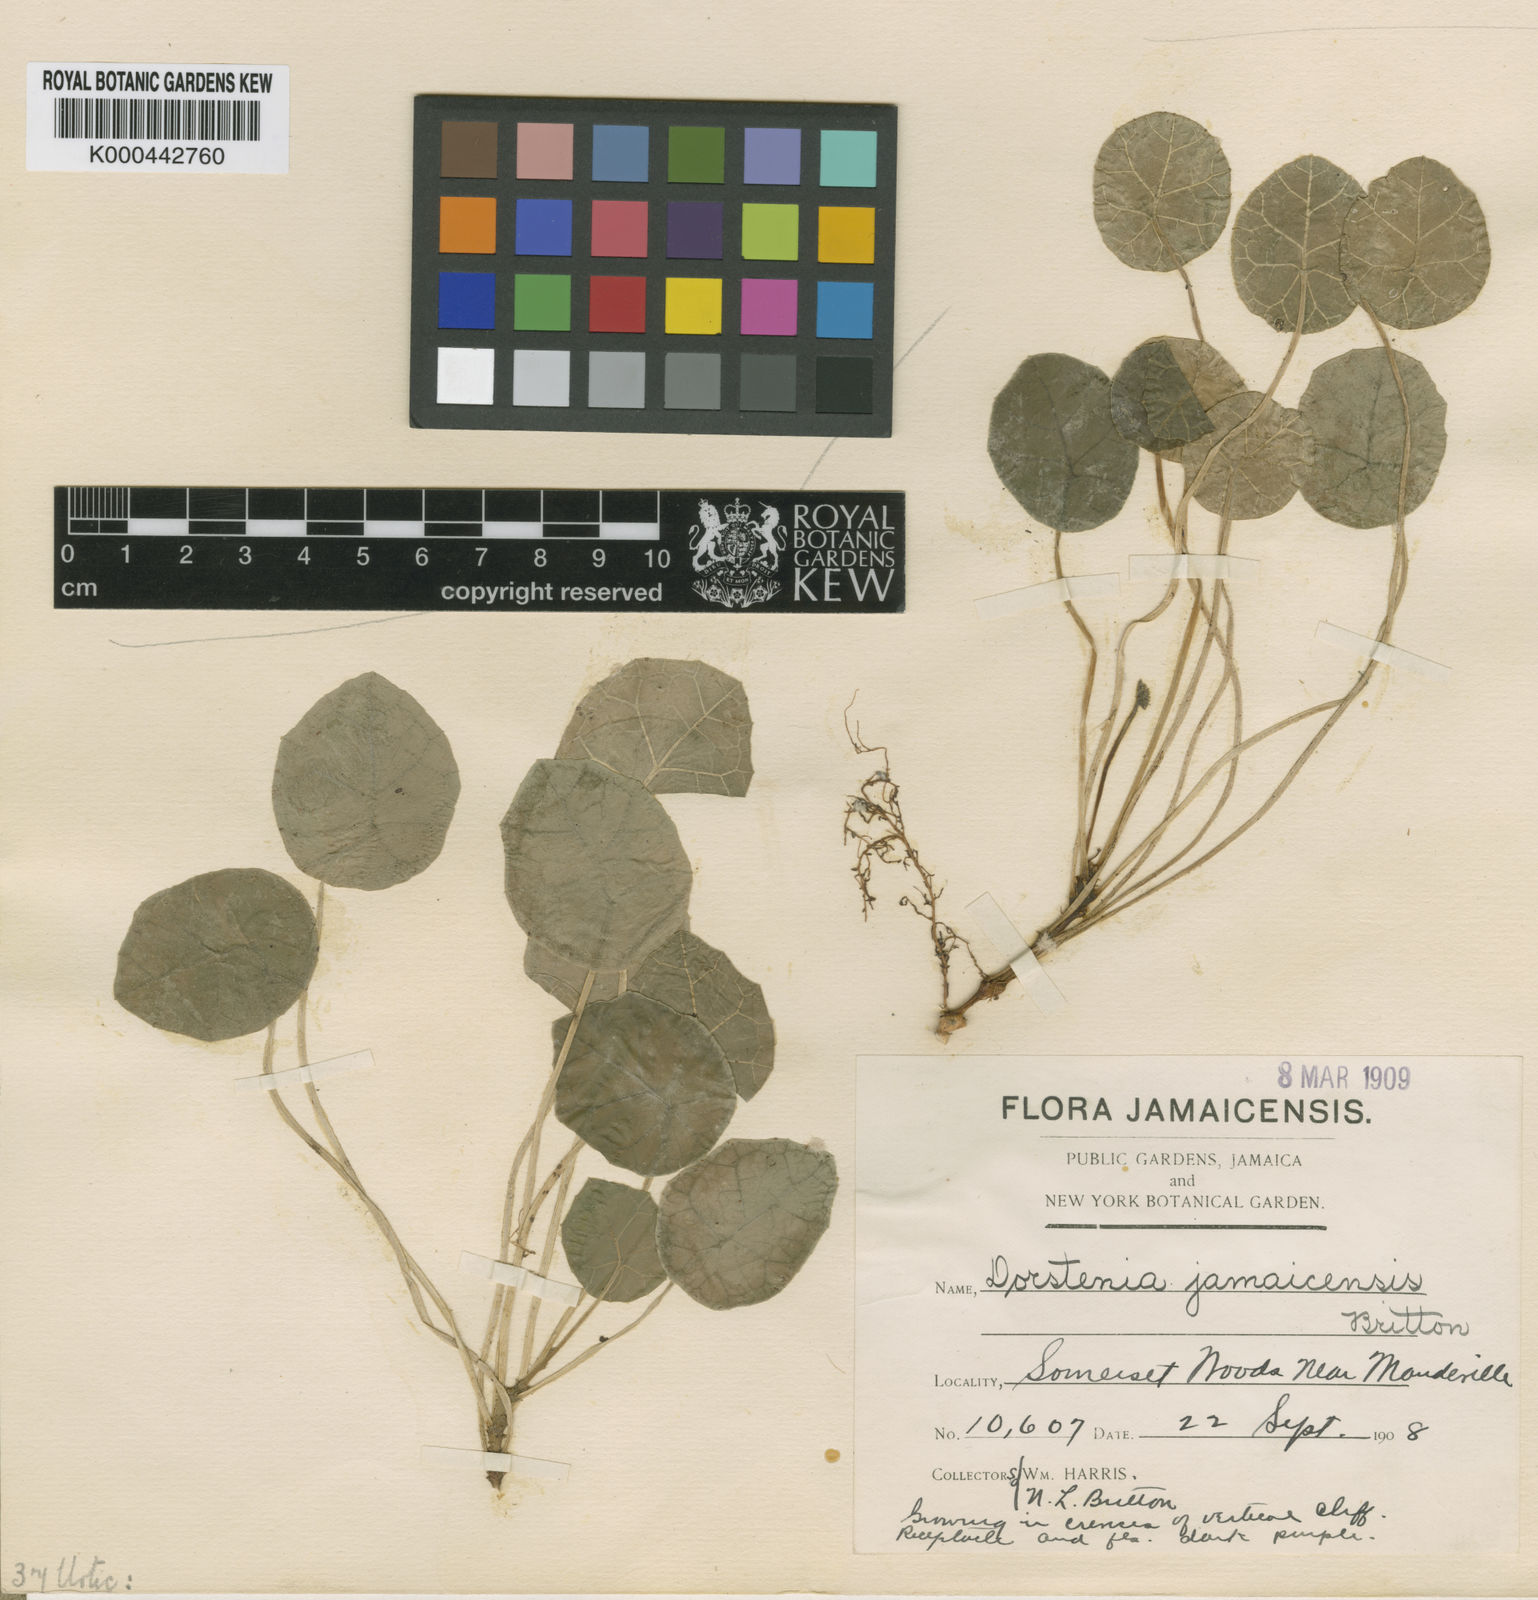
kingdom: Plantae
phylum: Tracheophyta
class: Magnoliopsida
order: Rosales
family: Moraceae
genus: Dorstenia
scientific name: Dorstenia jamaicensis
